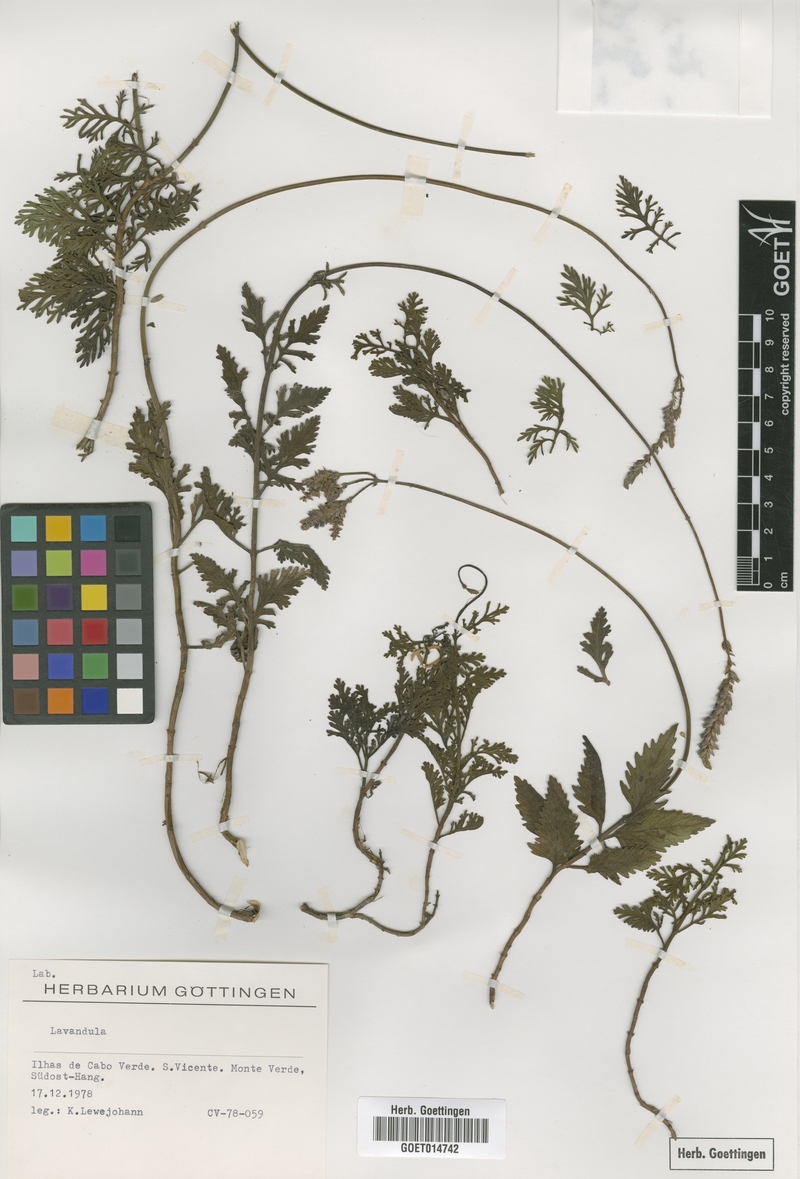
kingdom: Plantae
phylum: Tracheophyta
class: Magnoliopsida
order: Lamiales
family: Lamiaceae
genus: Lavandula
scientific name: Lavandula
